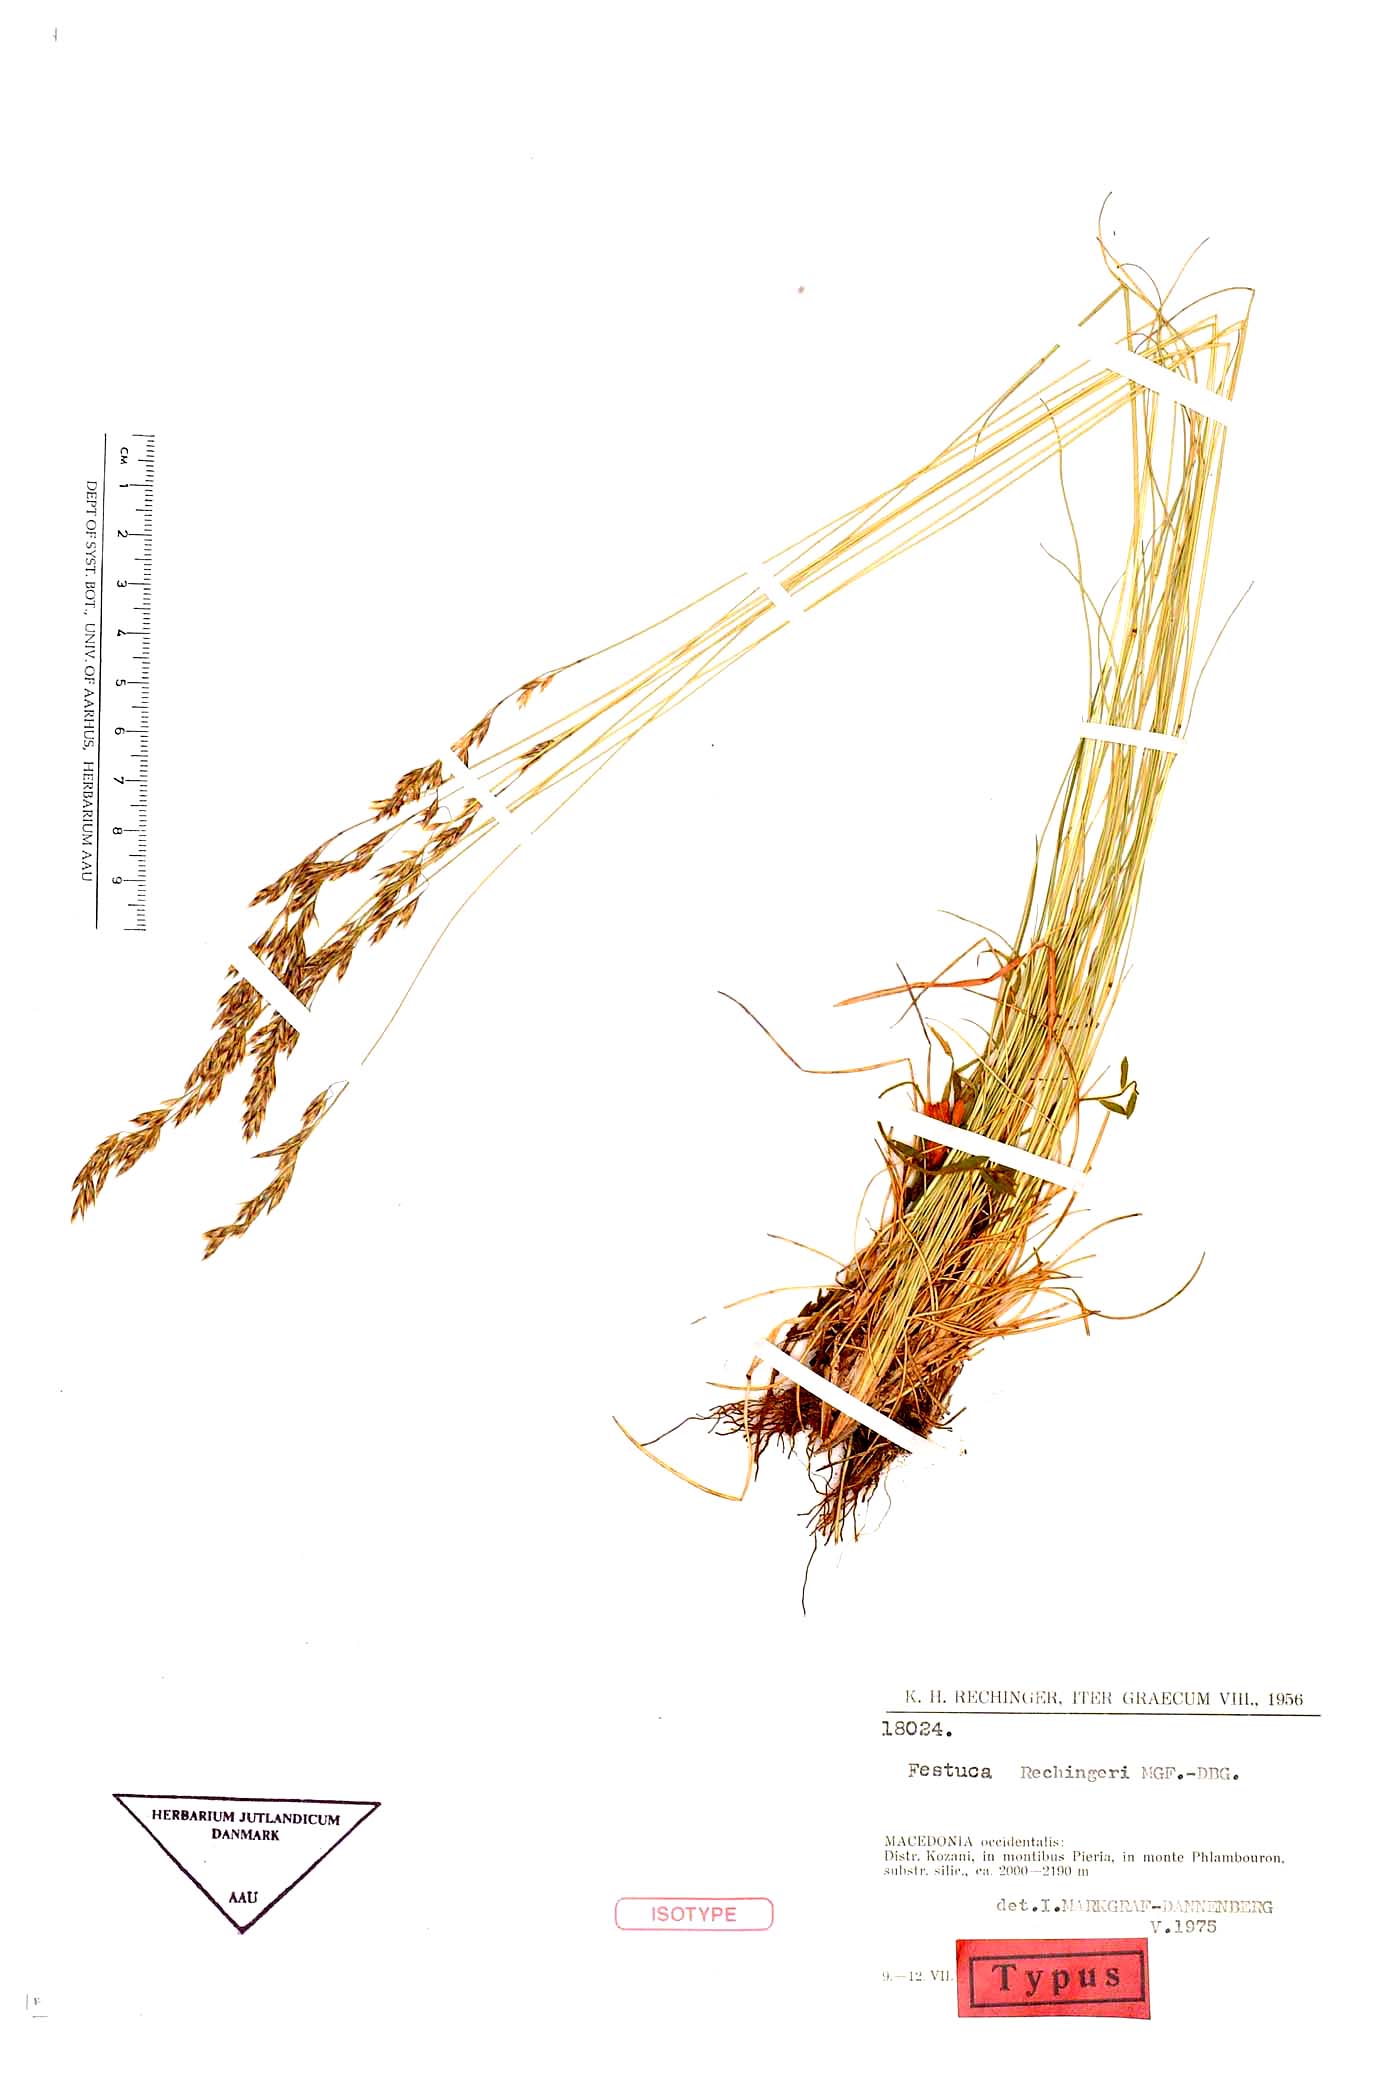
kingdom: Plantae
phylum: Tracheophyta
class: Liliopsida
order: Poales
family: Poaceae
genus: Festuca
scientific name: Festuca kozanensis
